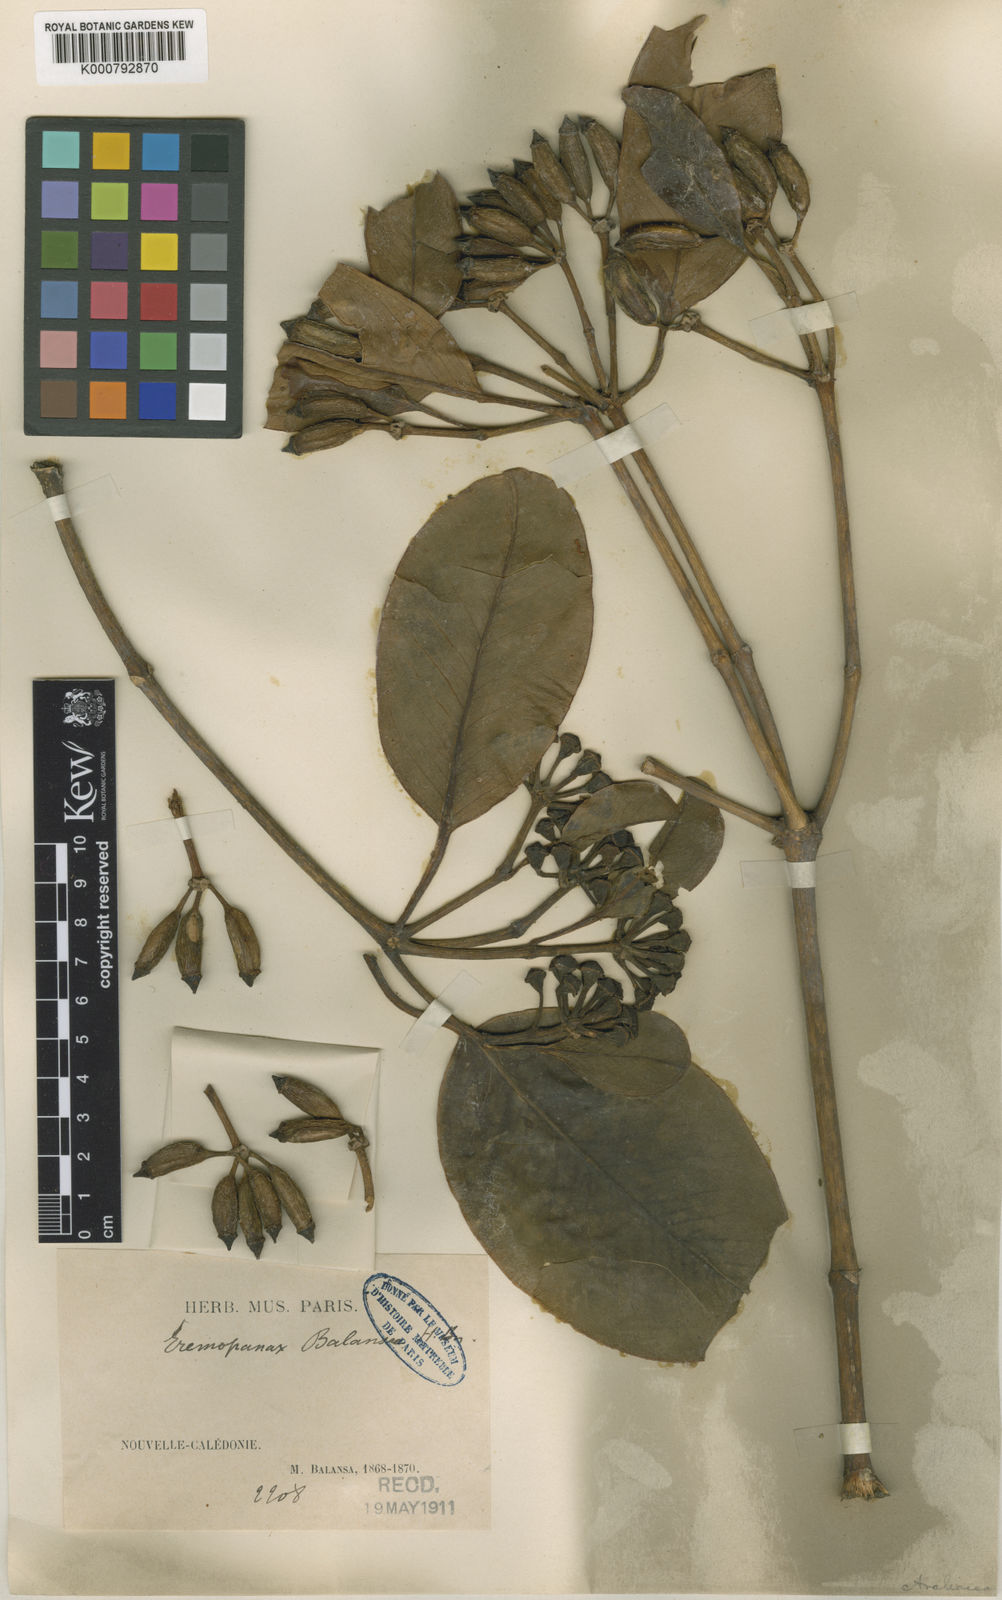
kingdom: Plantae
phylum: Tracheophyta
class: Magnoliopsida
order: Apiales
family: Araliaceae
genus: Polyscias
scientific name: Polyscias vieillardii
